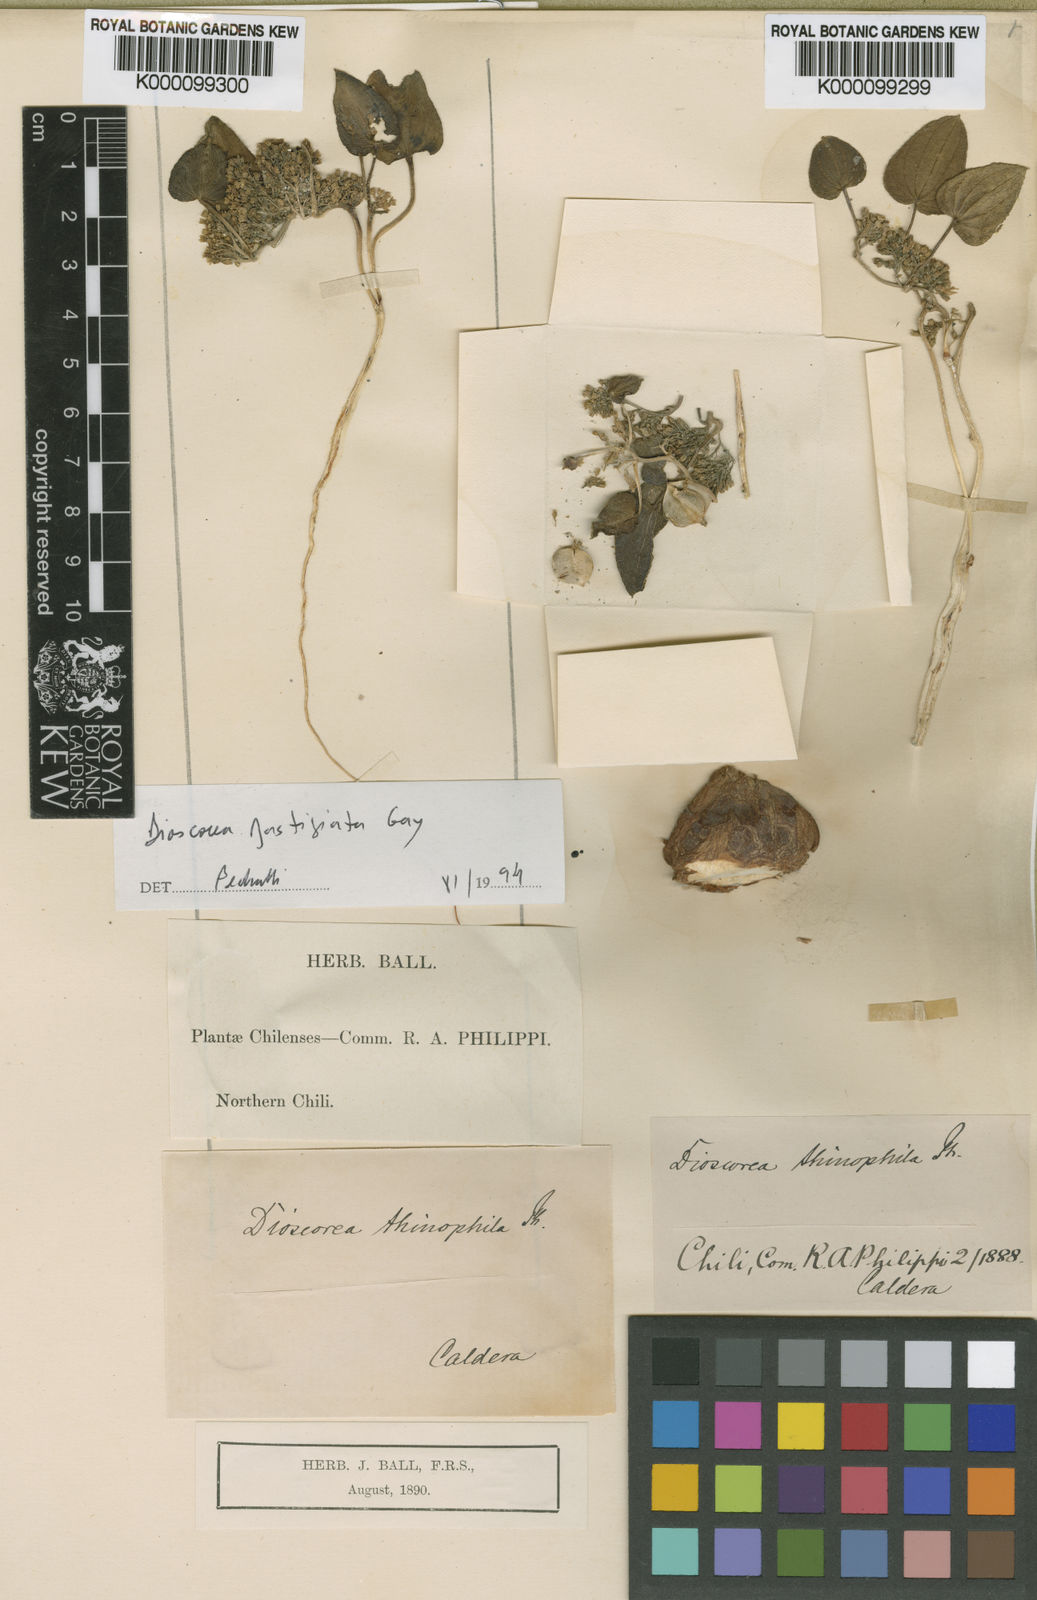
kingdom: Plantae
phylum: Tracheophyta
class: Liliopsida
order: Dioscoreales
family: Dioscoreaceae
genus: Dioscorea
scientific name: Dioscorea fastigiata
